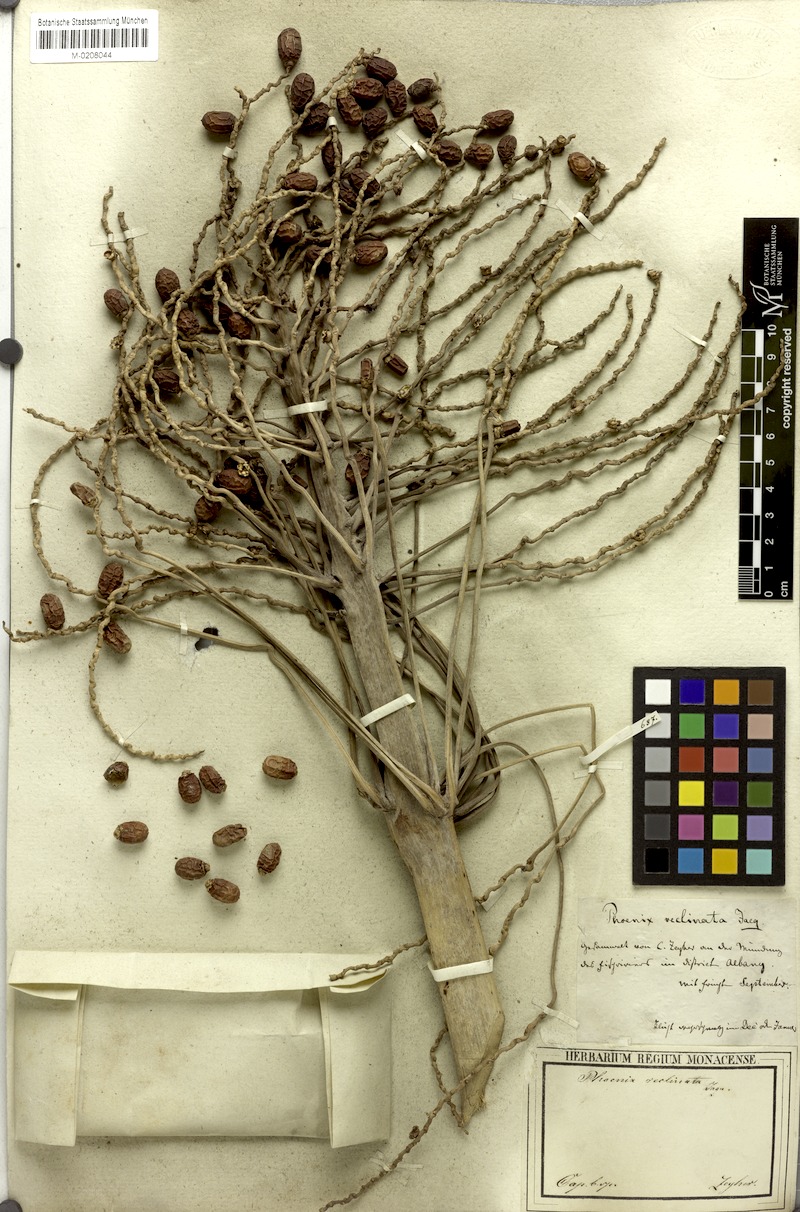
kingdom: Plantae
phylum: Tracheophyta
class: Liliopsida
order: Arecales
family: Arecaceae
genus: Phoenix
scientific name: Phoenix reclinata
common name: Senegal date palm
